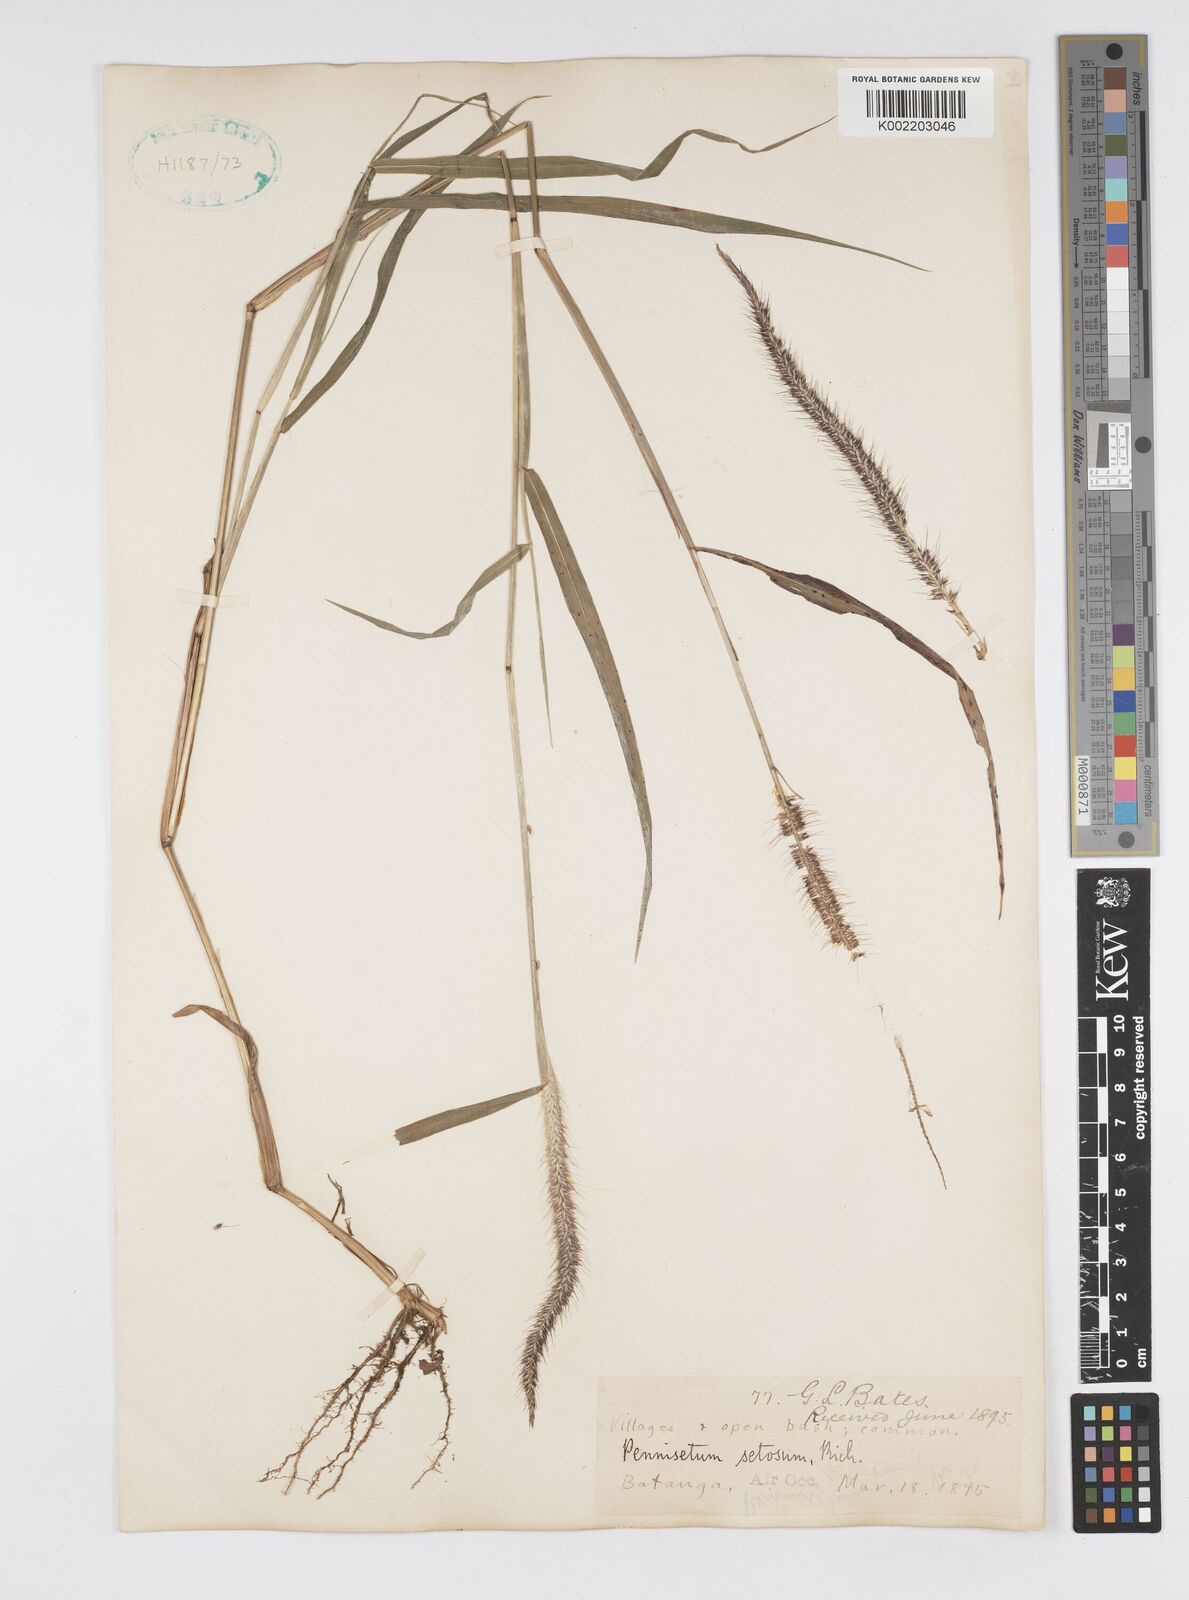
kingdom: Plantae
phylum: Tracheophyta
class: Liliopsida
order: Poales
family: Poaceae
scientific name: Poaceae
